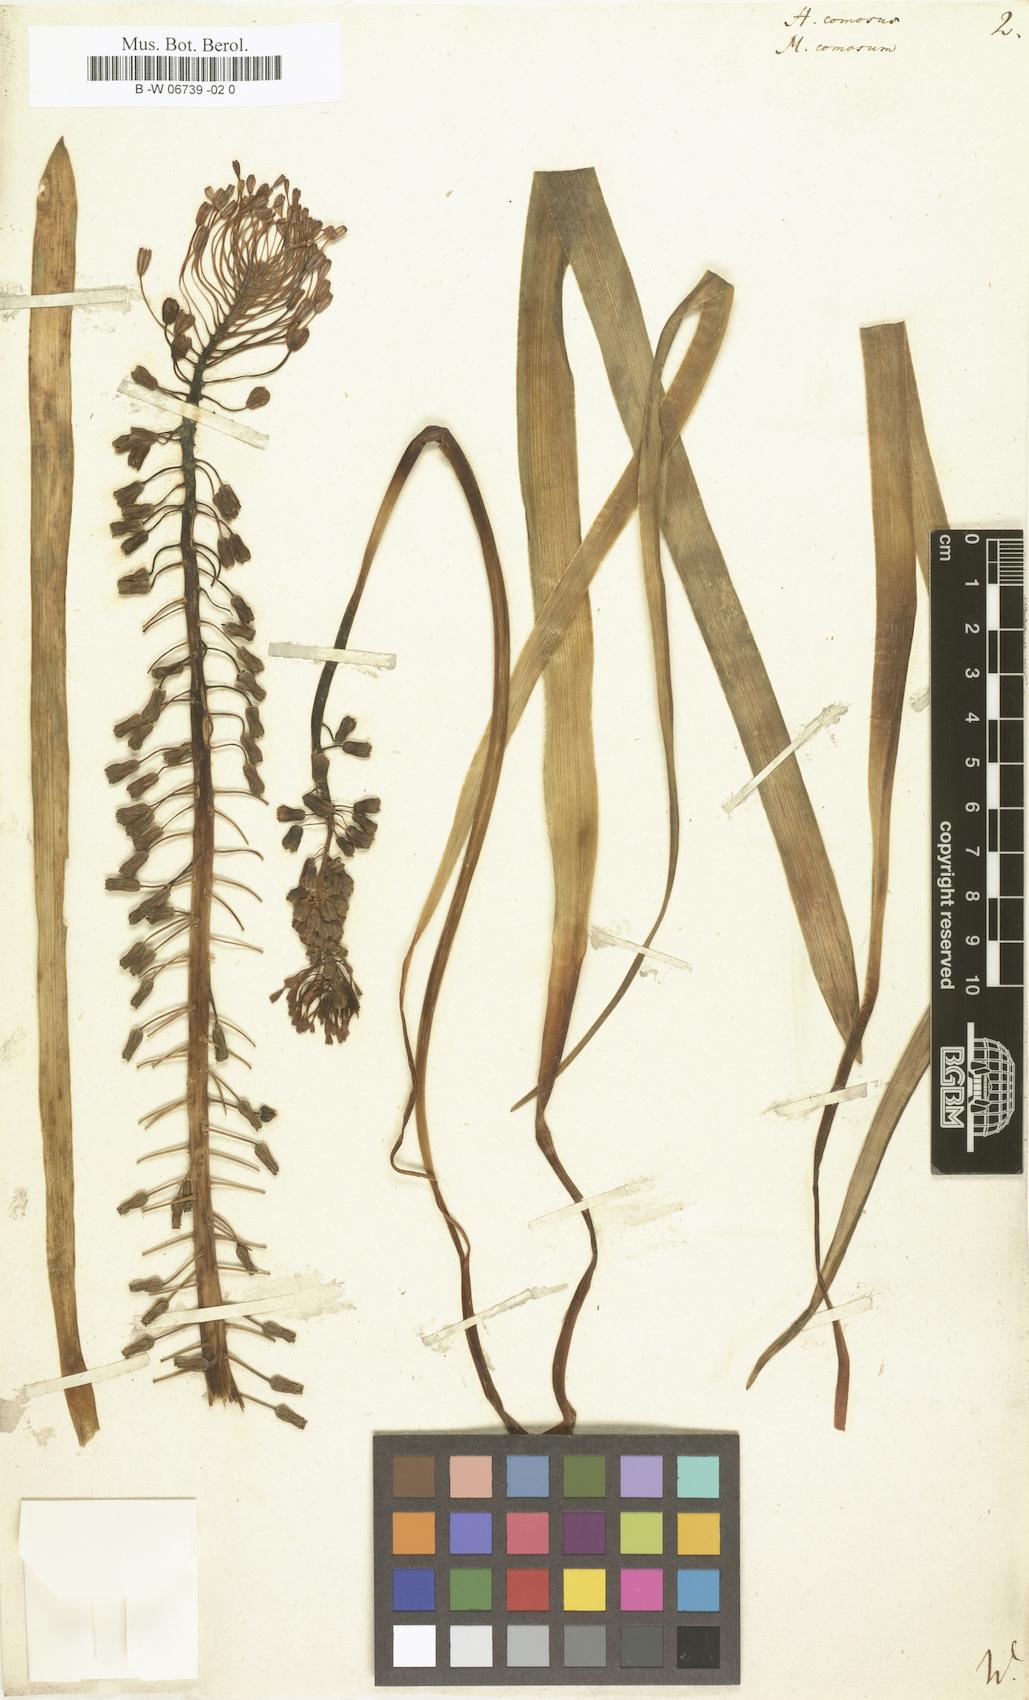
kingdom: Plantae
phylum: Tracheophyta
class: Liliopsida
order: Asparagales
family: Asparagaceae
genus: Muscari
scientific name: Muscari comosum
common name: Tassel hyacinth
